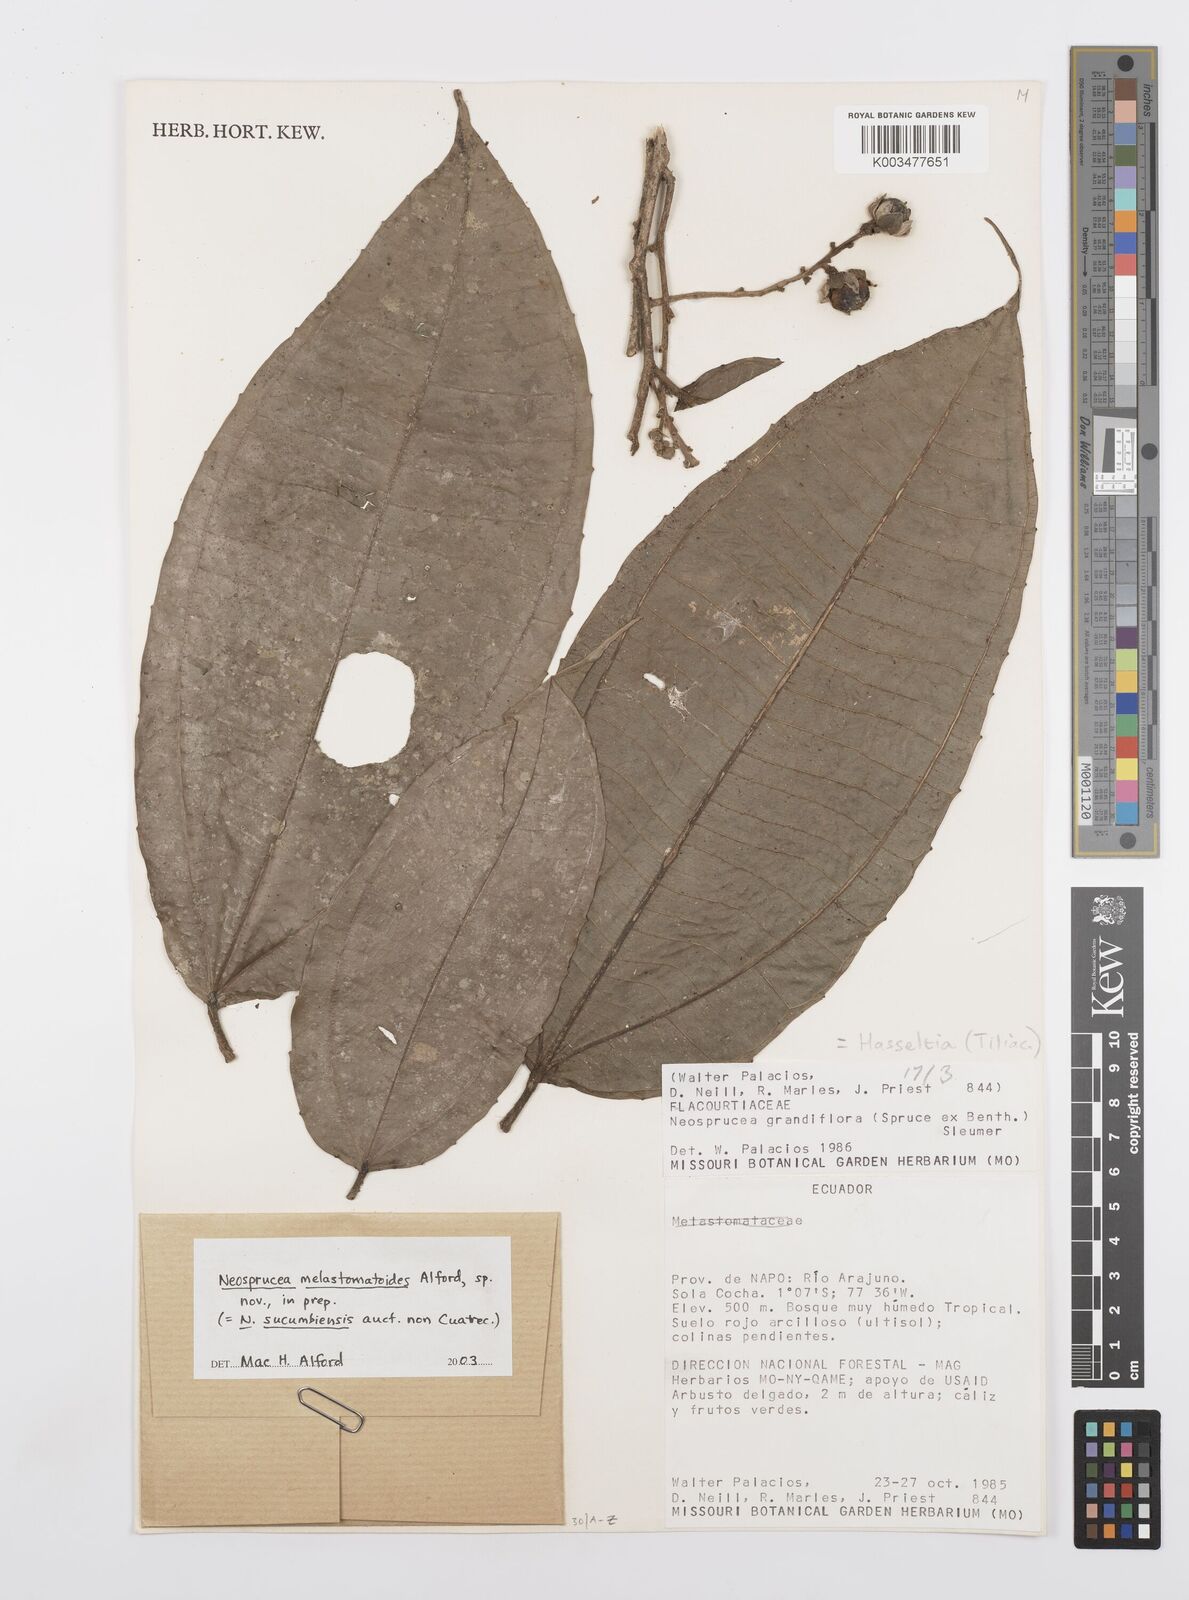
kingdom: Plantae
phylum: Tracheophyta
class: Magnoliopsida
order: Malpighiales
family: Salicaceae
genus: Neosprucea
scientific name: Neosprucea melastomatoides
